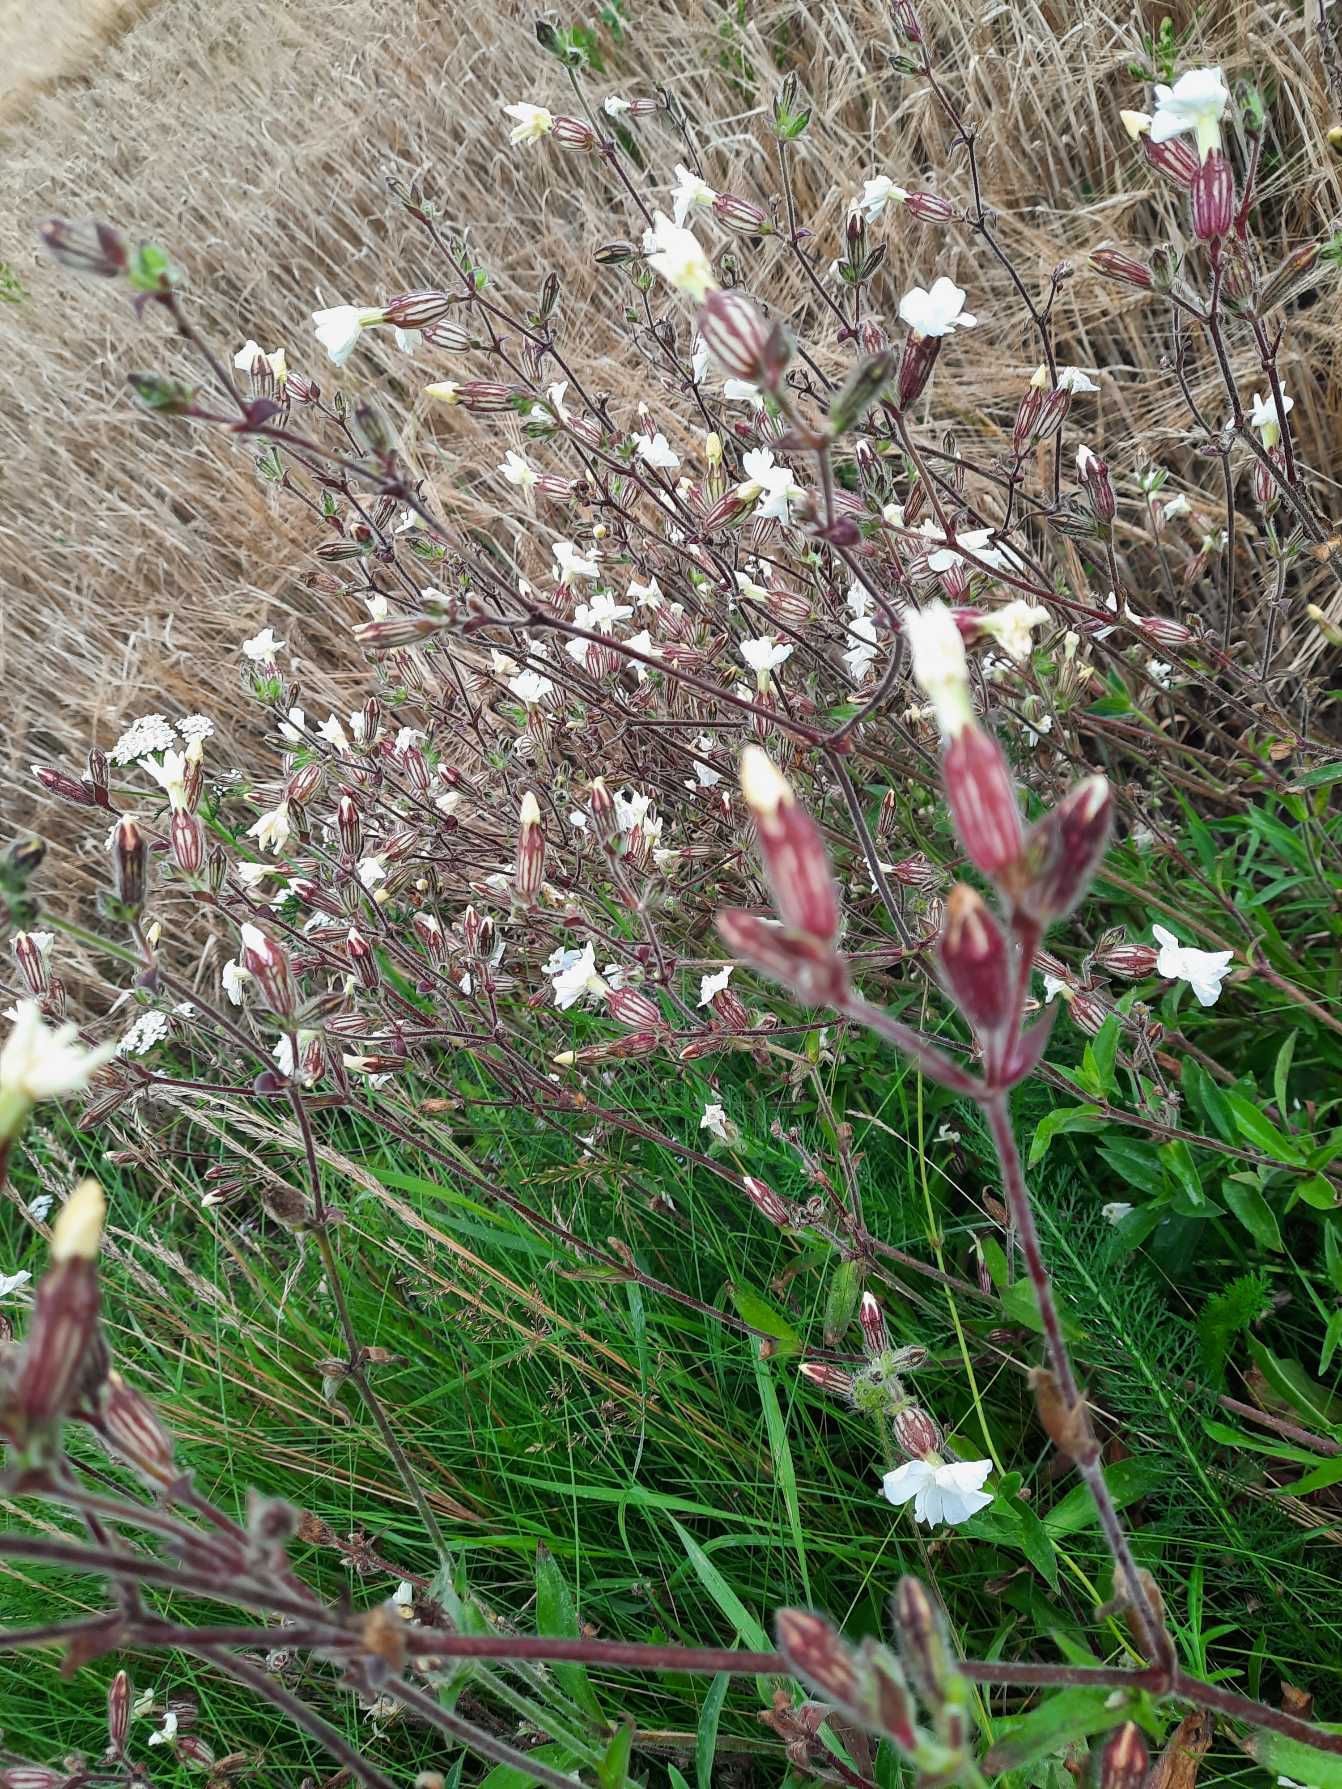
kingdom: Plantae
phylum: Tracheophyta
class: Magnoliopsida
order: Caryophyllales
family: Caryophyllaceae
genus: Silene
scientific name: Silene latifolia
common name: Aftenpragtstjerne
